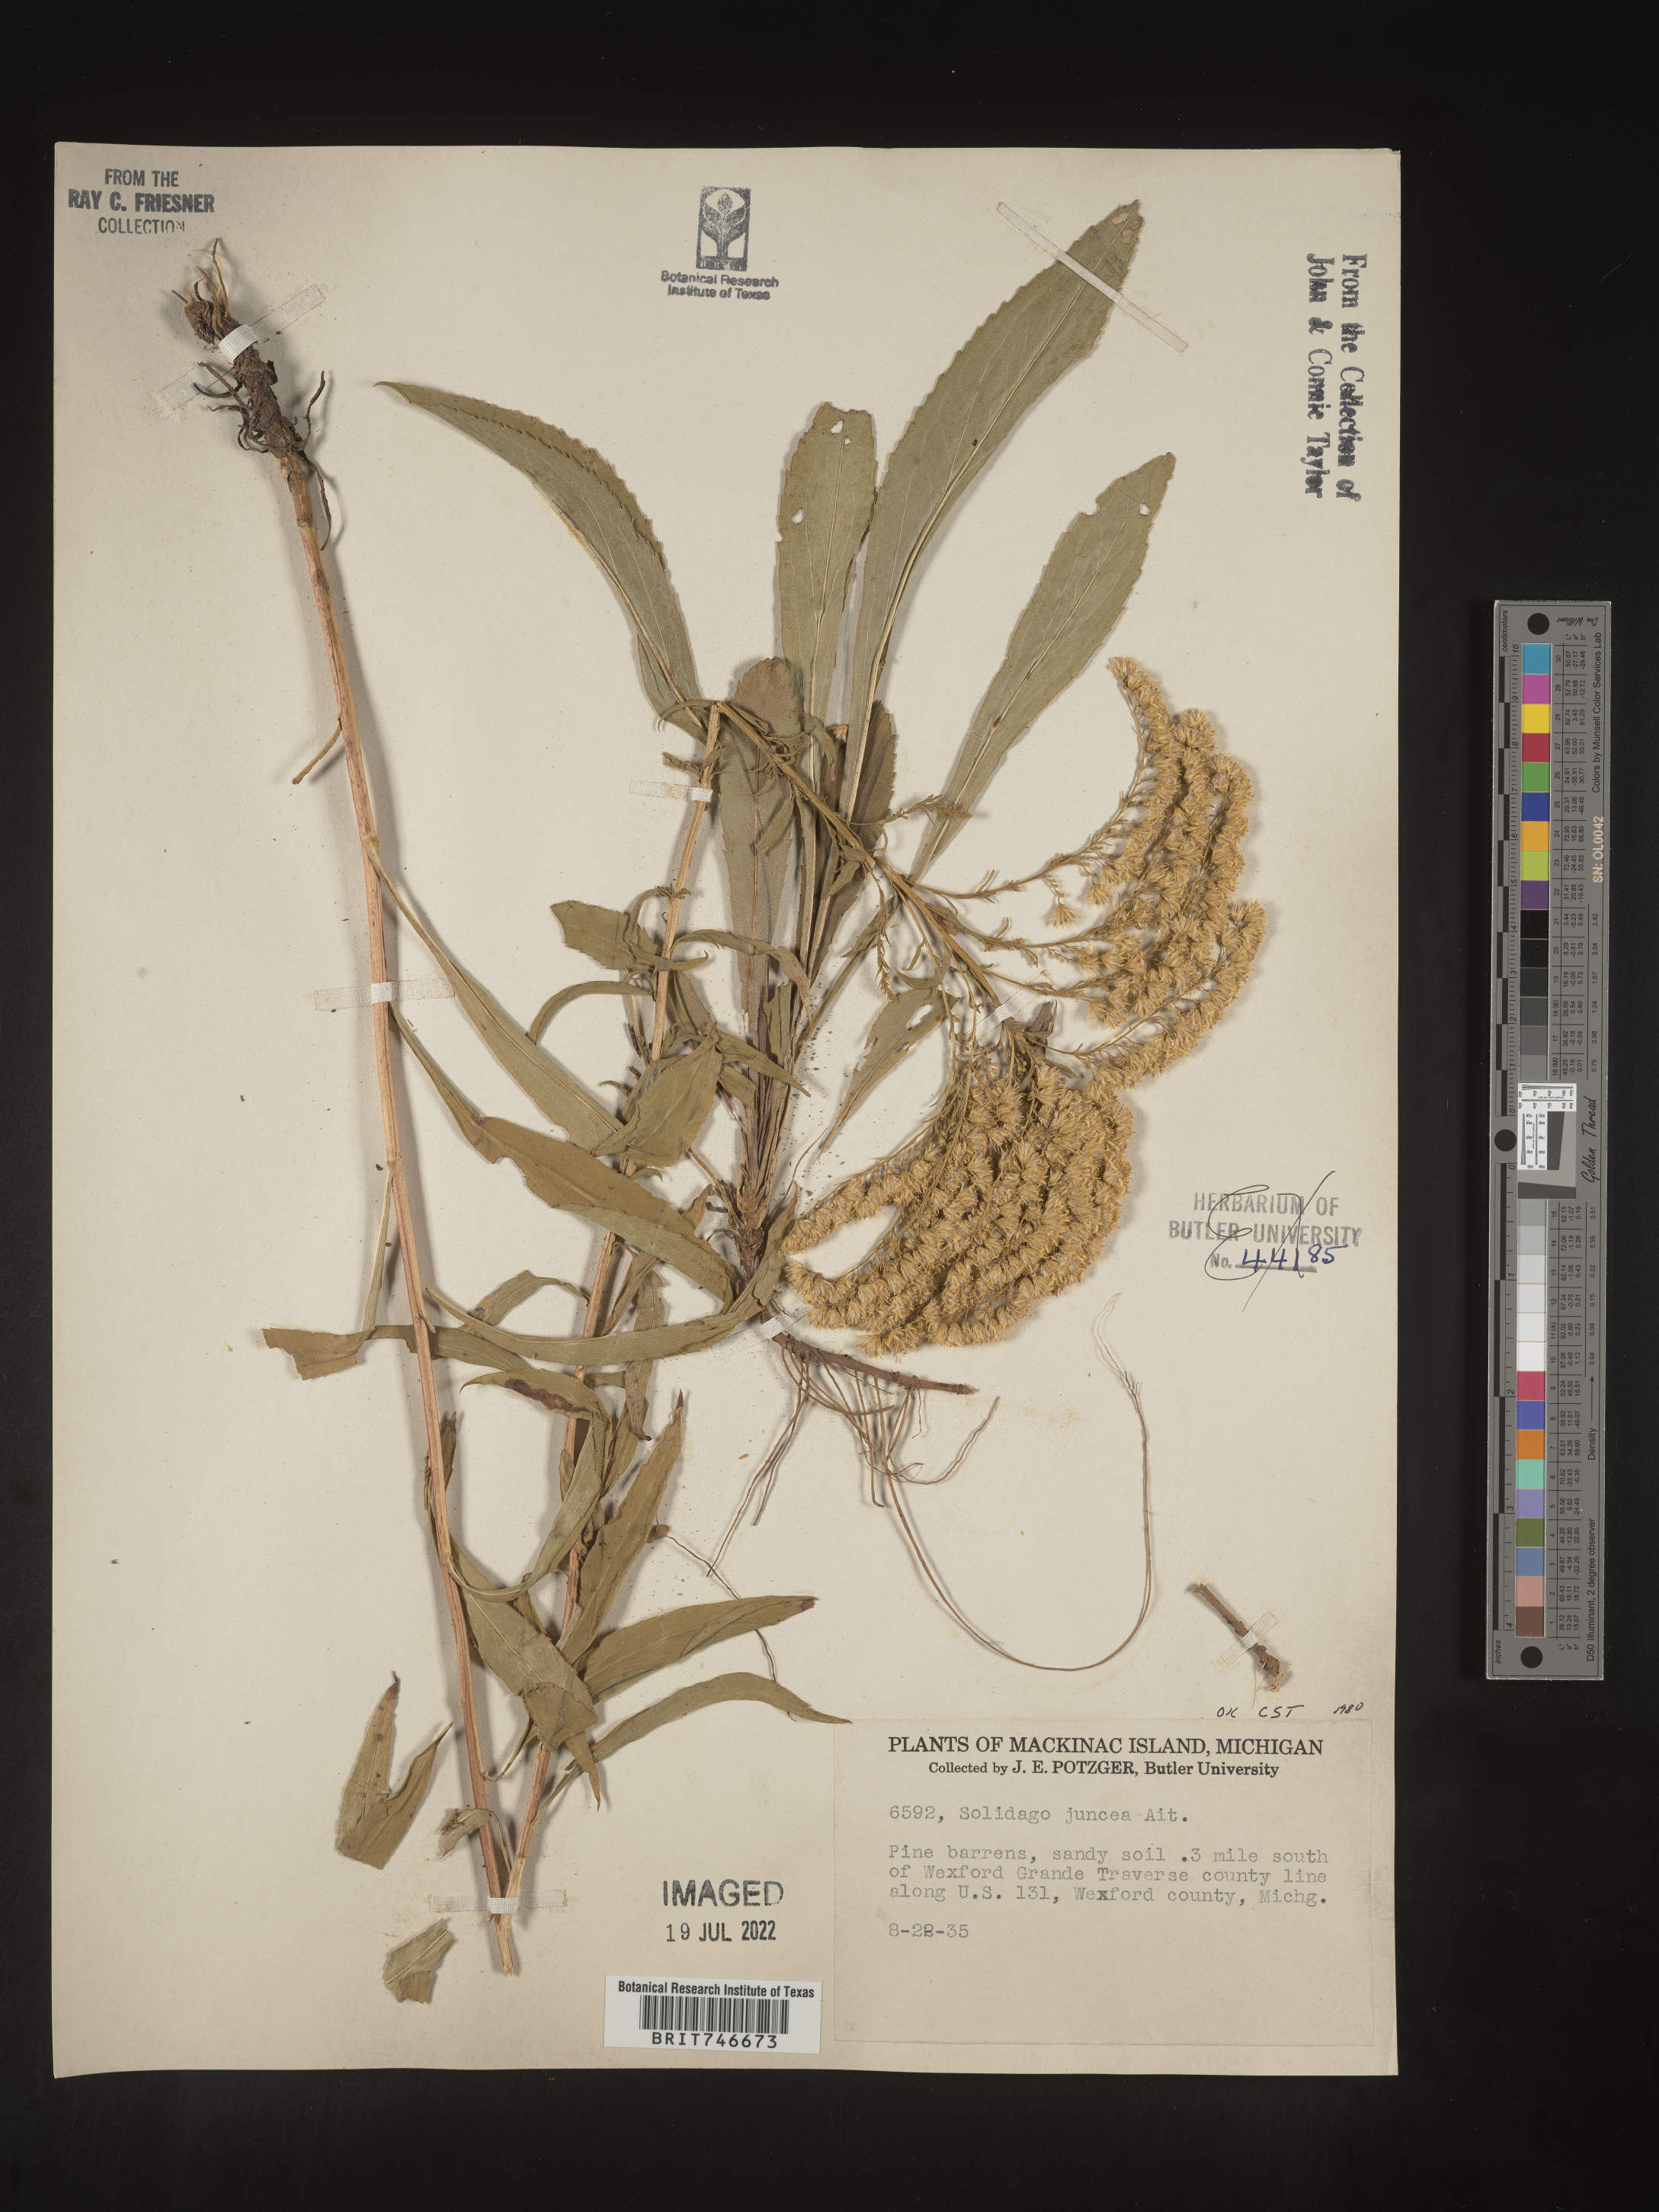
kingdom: Plantae
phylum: Tracheophyta
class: Magnoliopsida
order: Asterales
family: Asteraceae
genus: Solidago
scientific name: Solidago juncea
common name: Early goldenrod
